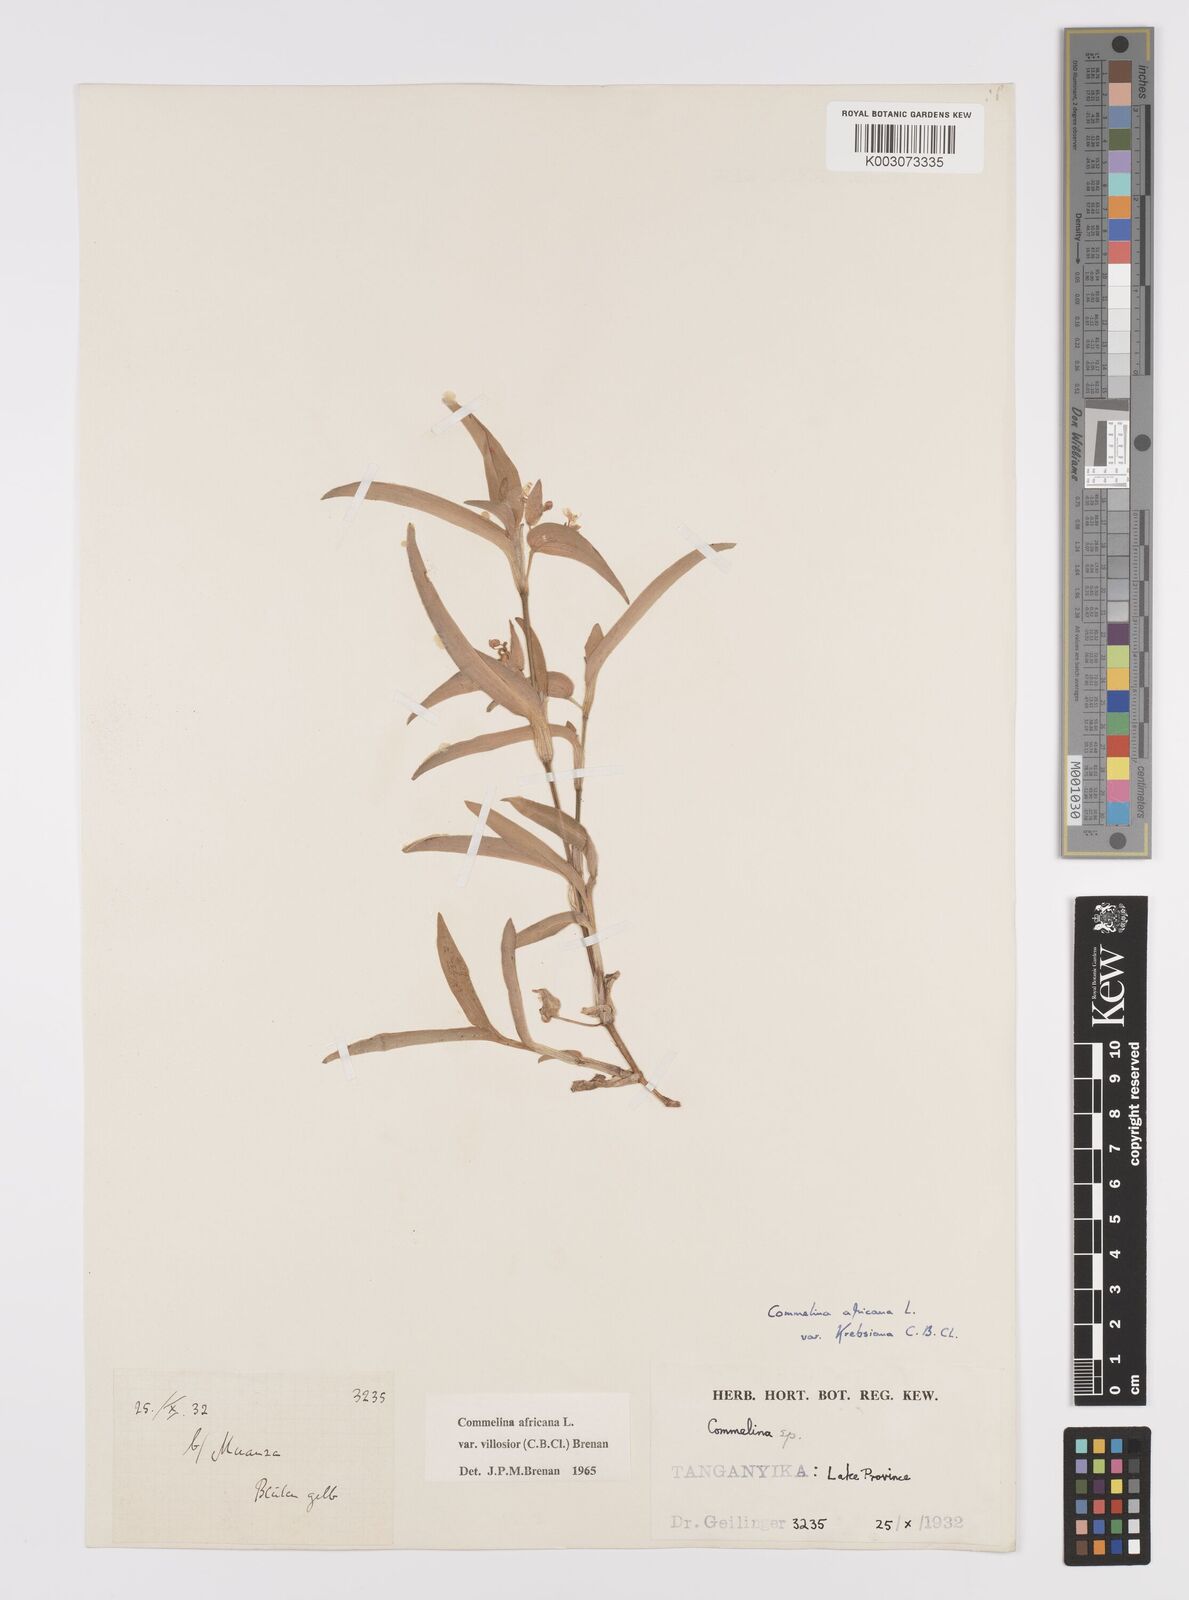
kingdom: Plantae
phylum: Tracheophyta
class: Liliopsida
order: Commelinales
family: Commelinaceae
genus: Commelina
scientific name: Commelina africana
